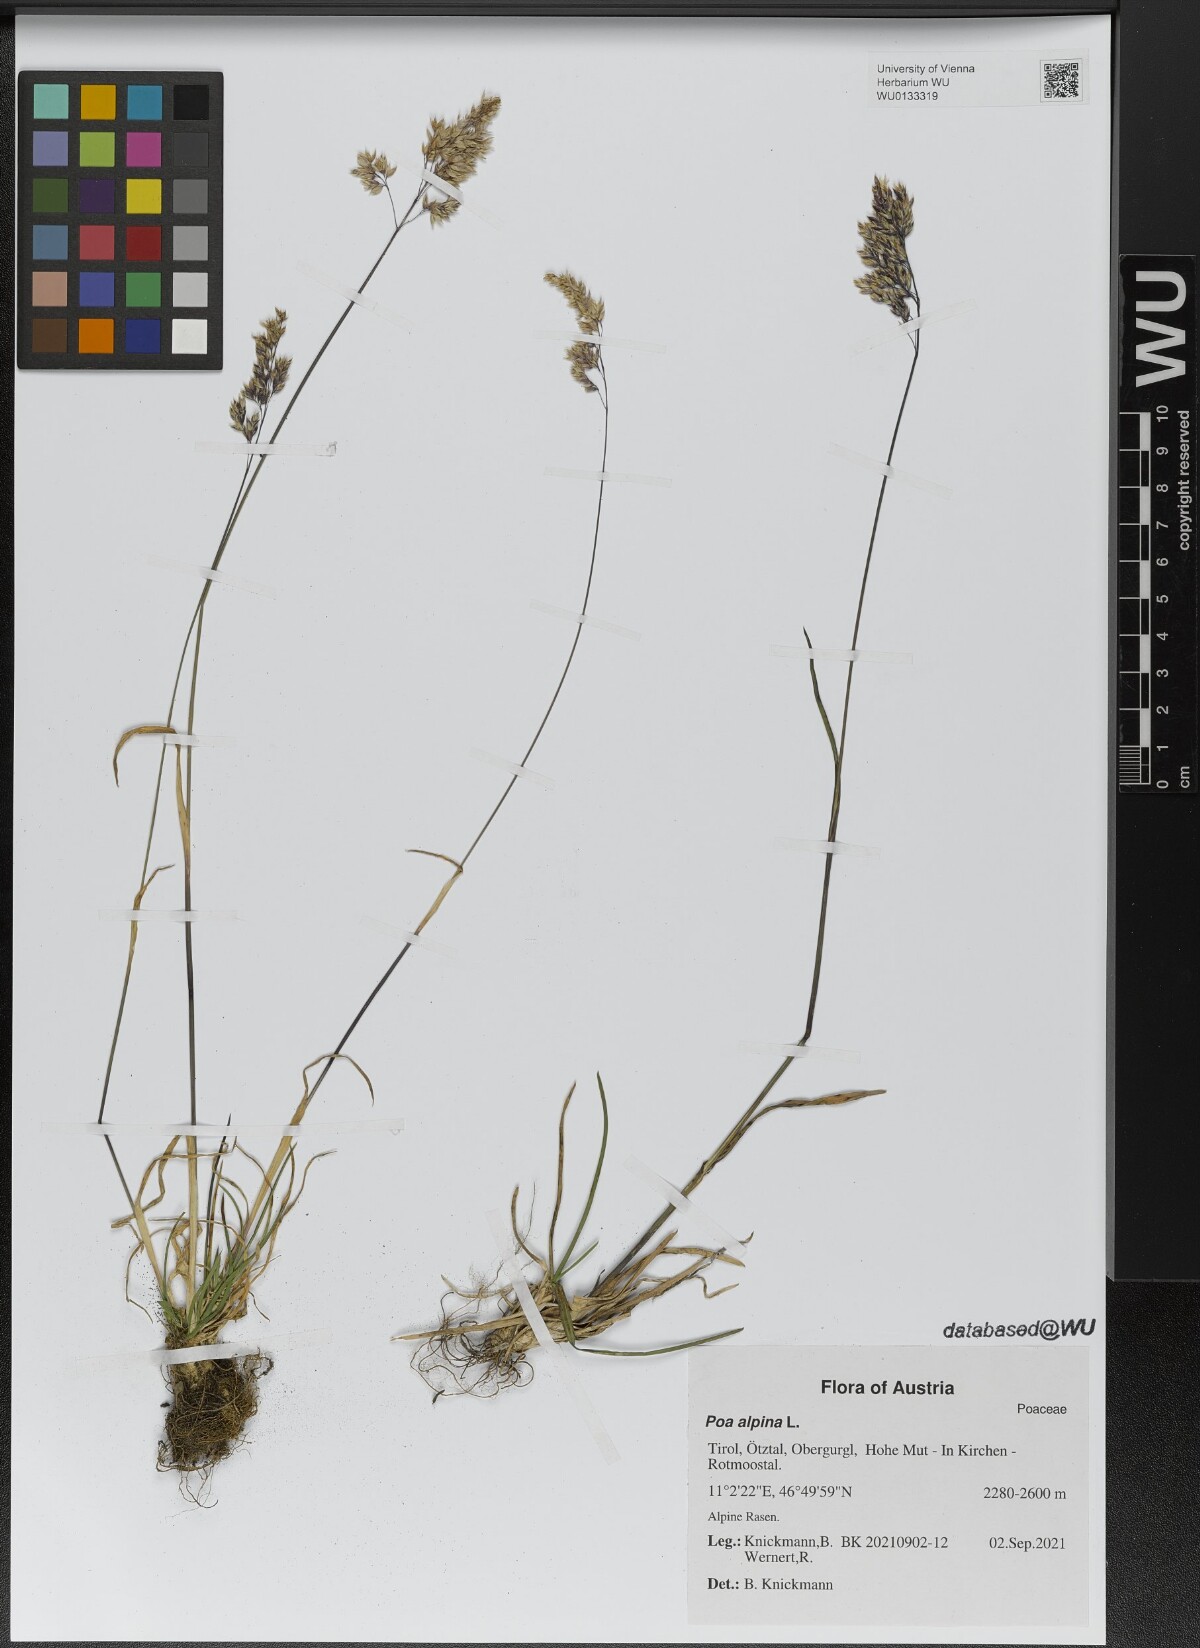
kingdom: Plantae
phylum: Tracheophyta
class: Liliopsida
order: Poales
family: Poaceae
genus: Poa
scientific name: Poa alpina
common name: Alpine bluegrass
